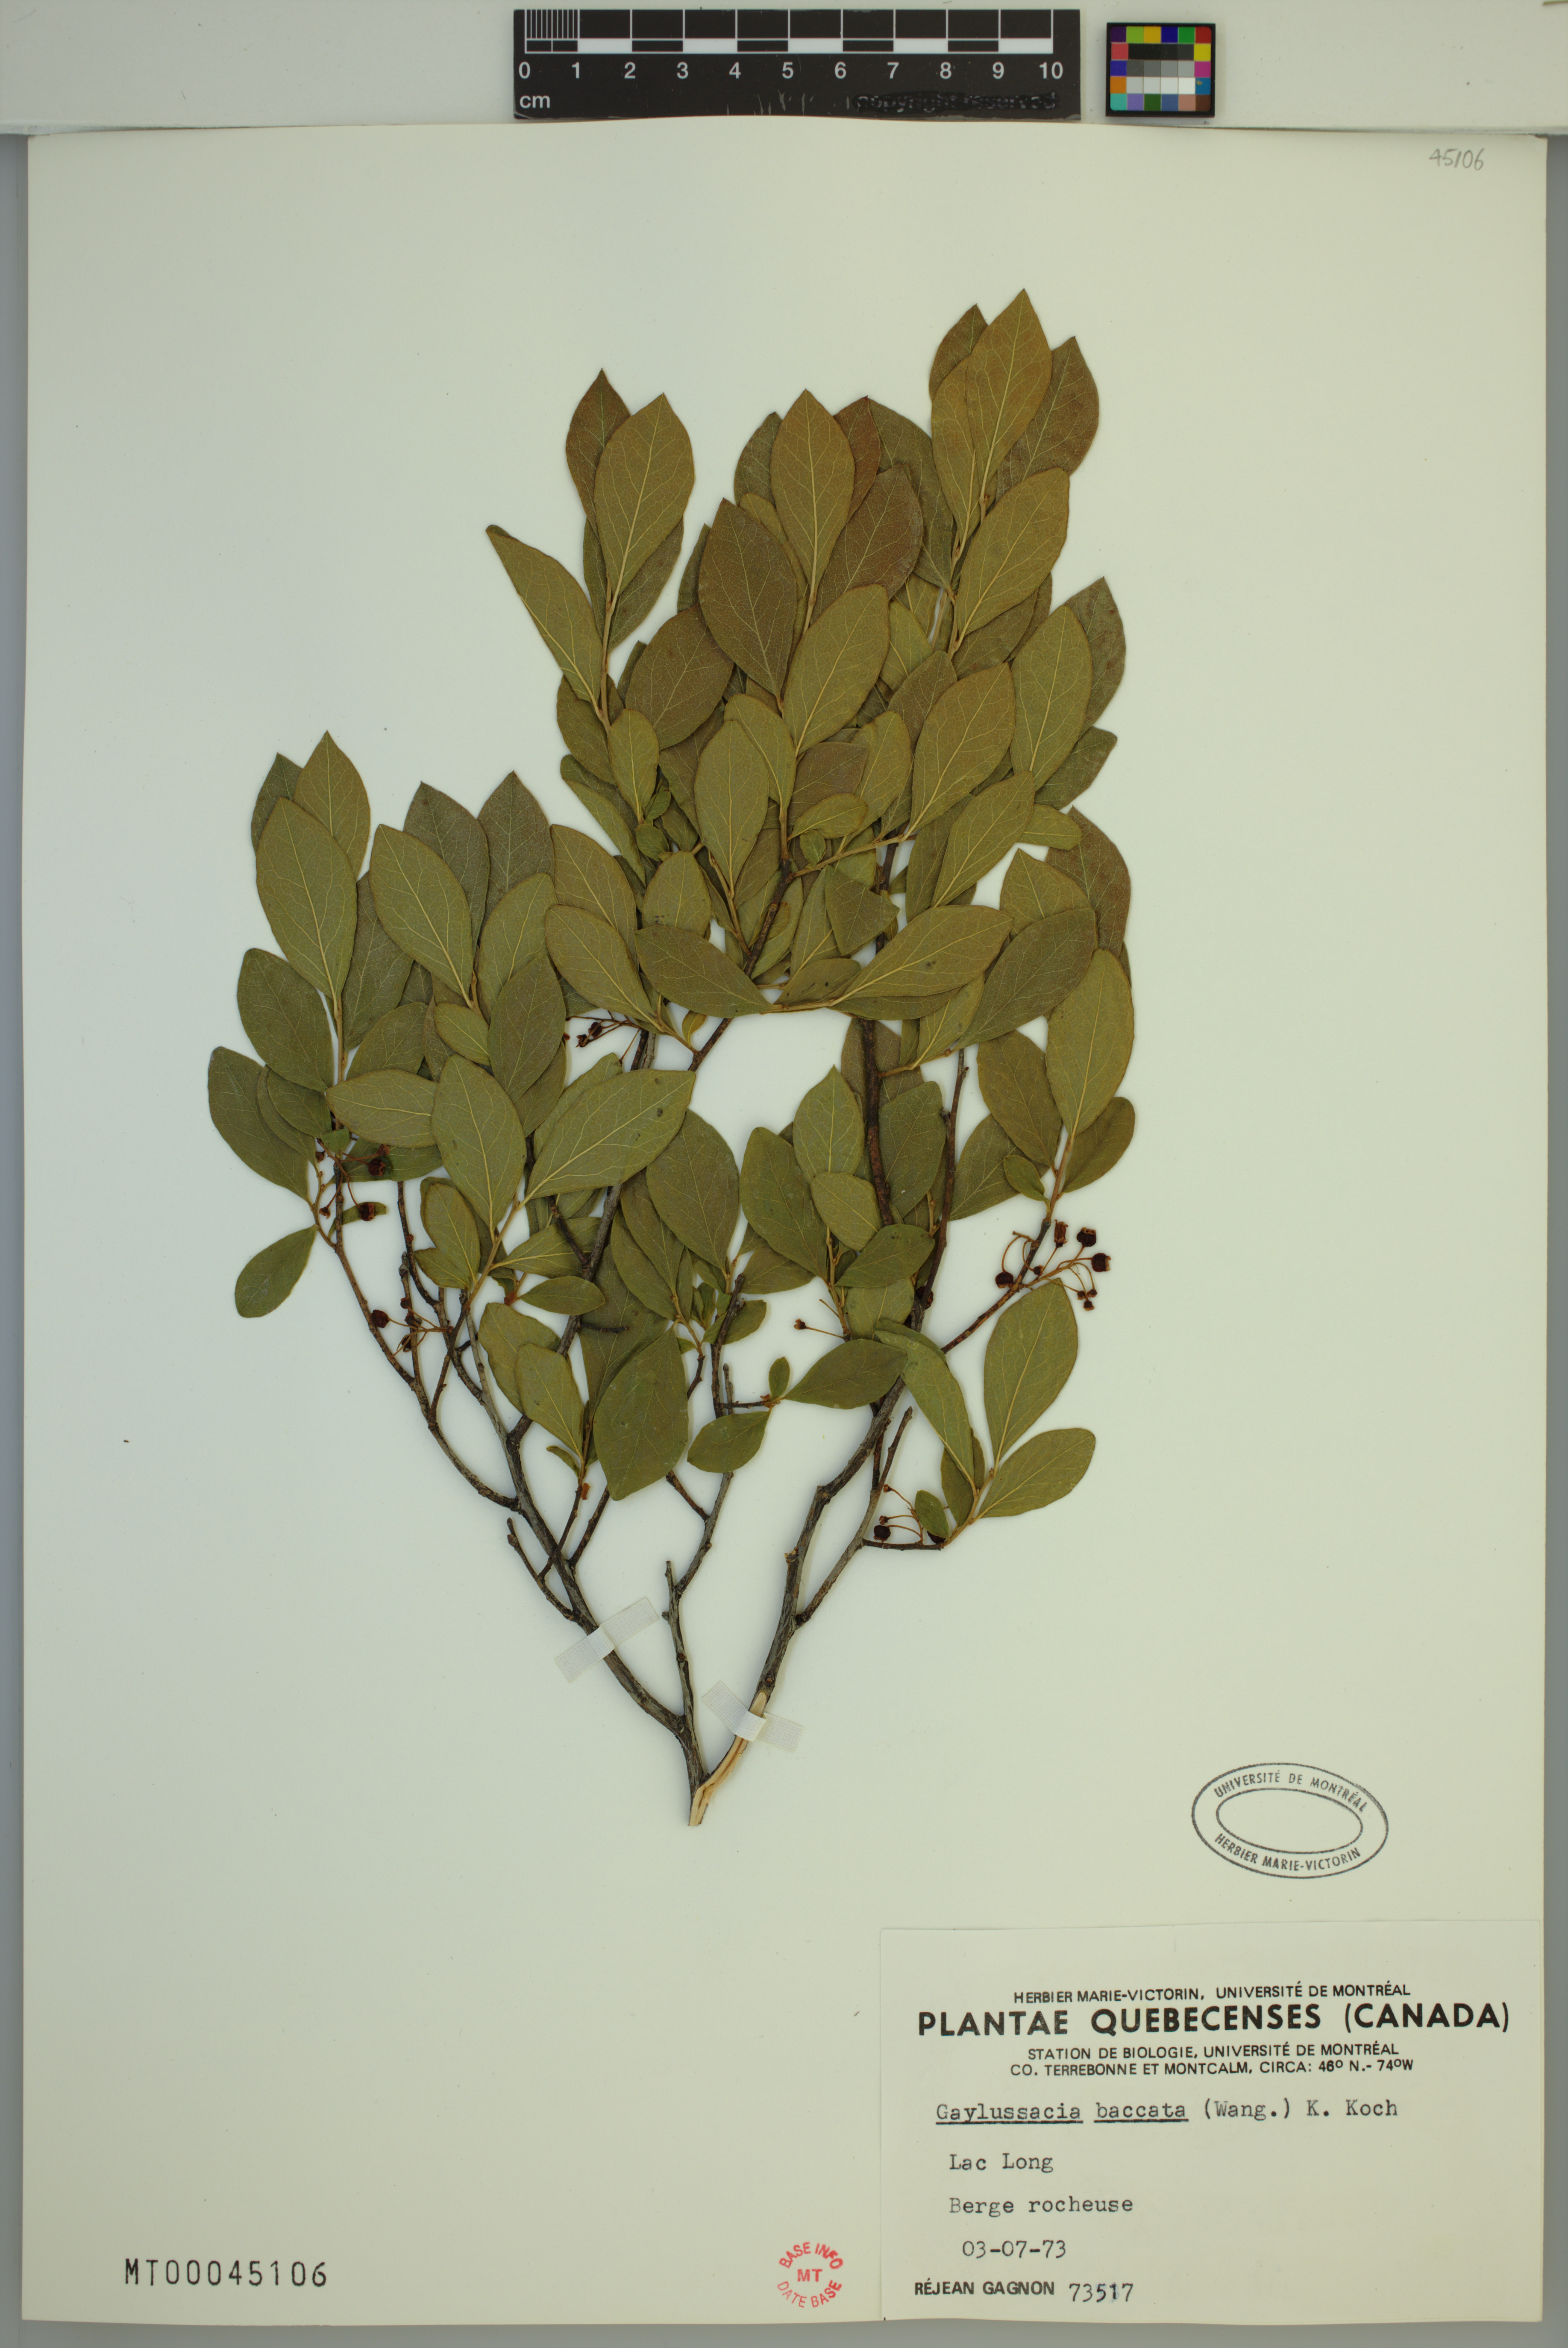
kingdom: Plantae
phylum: Tracheophyta
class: Magnoliopsida
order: Ericales
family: Ericaceae
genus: Gaylussacia
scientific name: Gaylussacia baccata
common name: Black huckleberry
